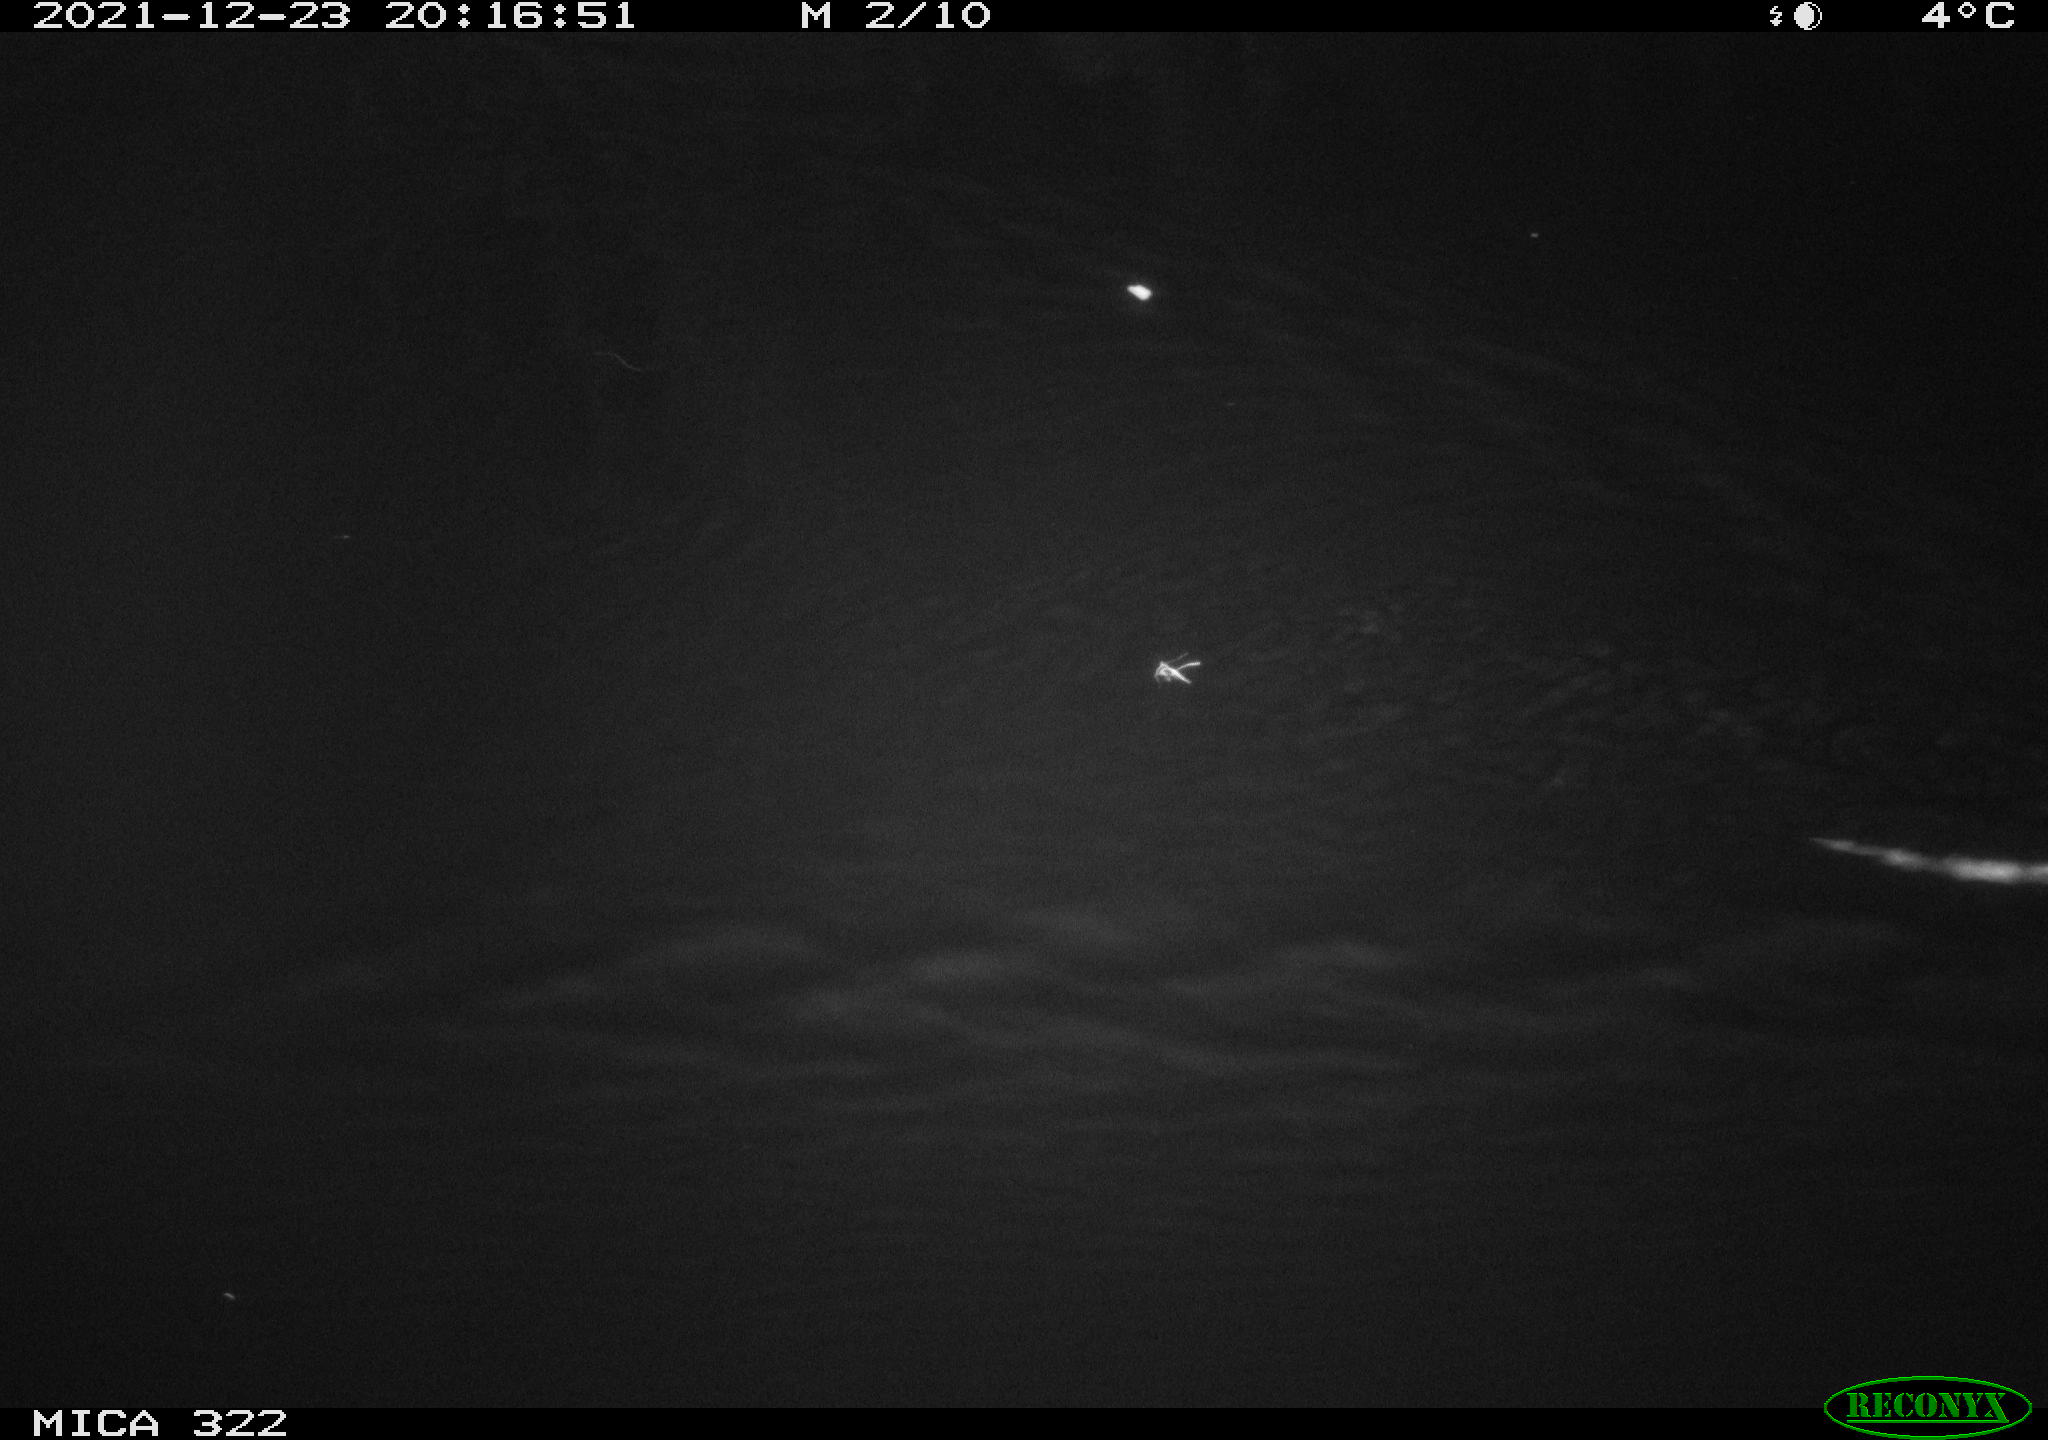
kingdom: Animalia
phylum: Chordata
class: Mammalia
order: Rodentia
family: Muridae
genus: Rattus
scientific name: Rattus norvegicus
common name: Brown rat
